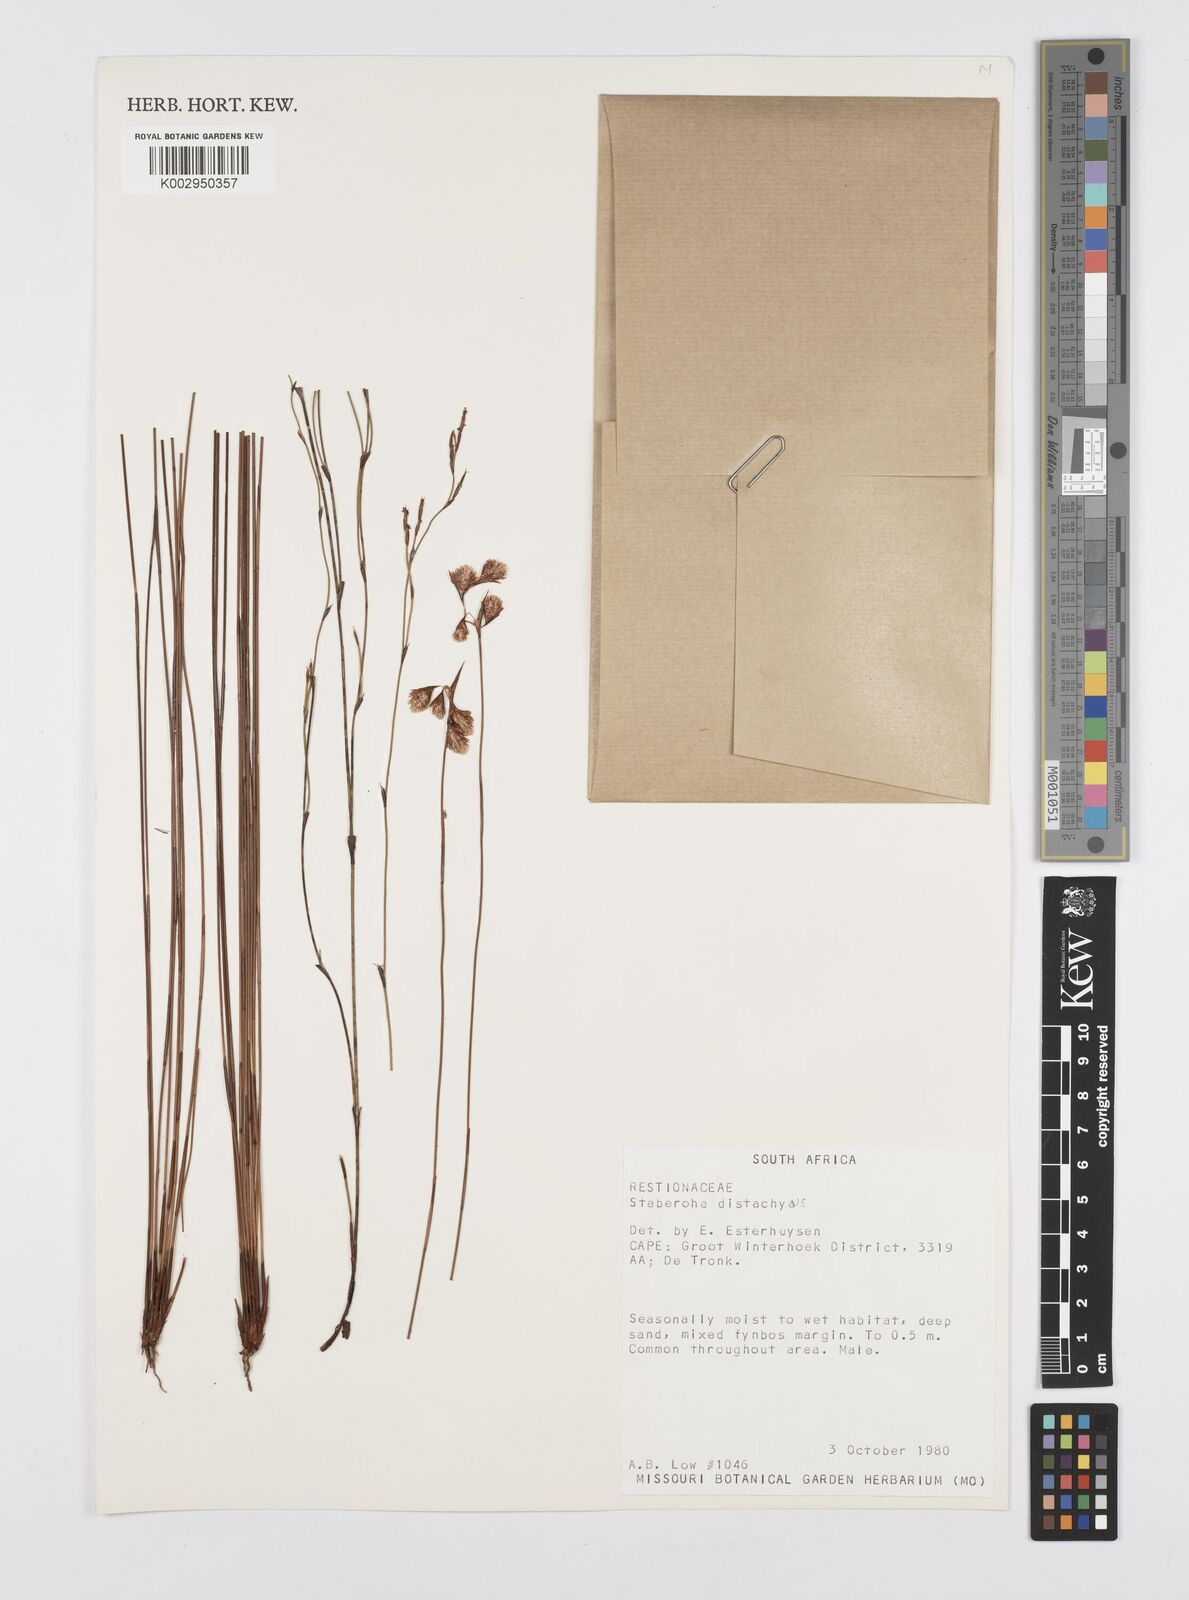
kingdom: Plantae
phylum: Tracheophyta
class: Liliopsida
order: Poales
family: Restionaceae
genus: Staberoha
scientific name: Staberoha distachyos
